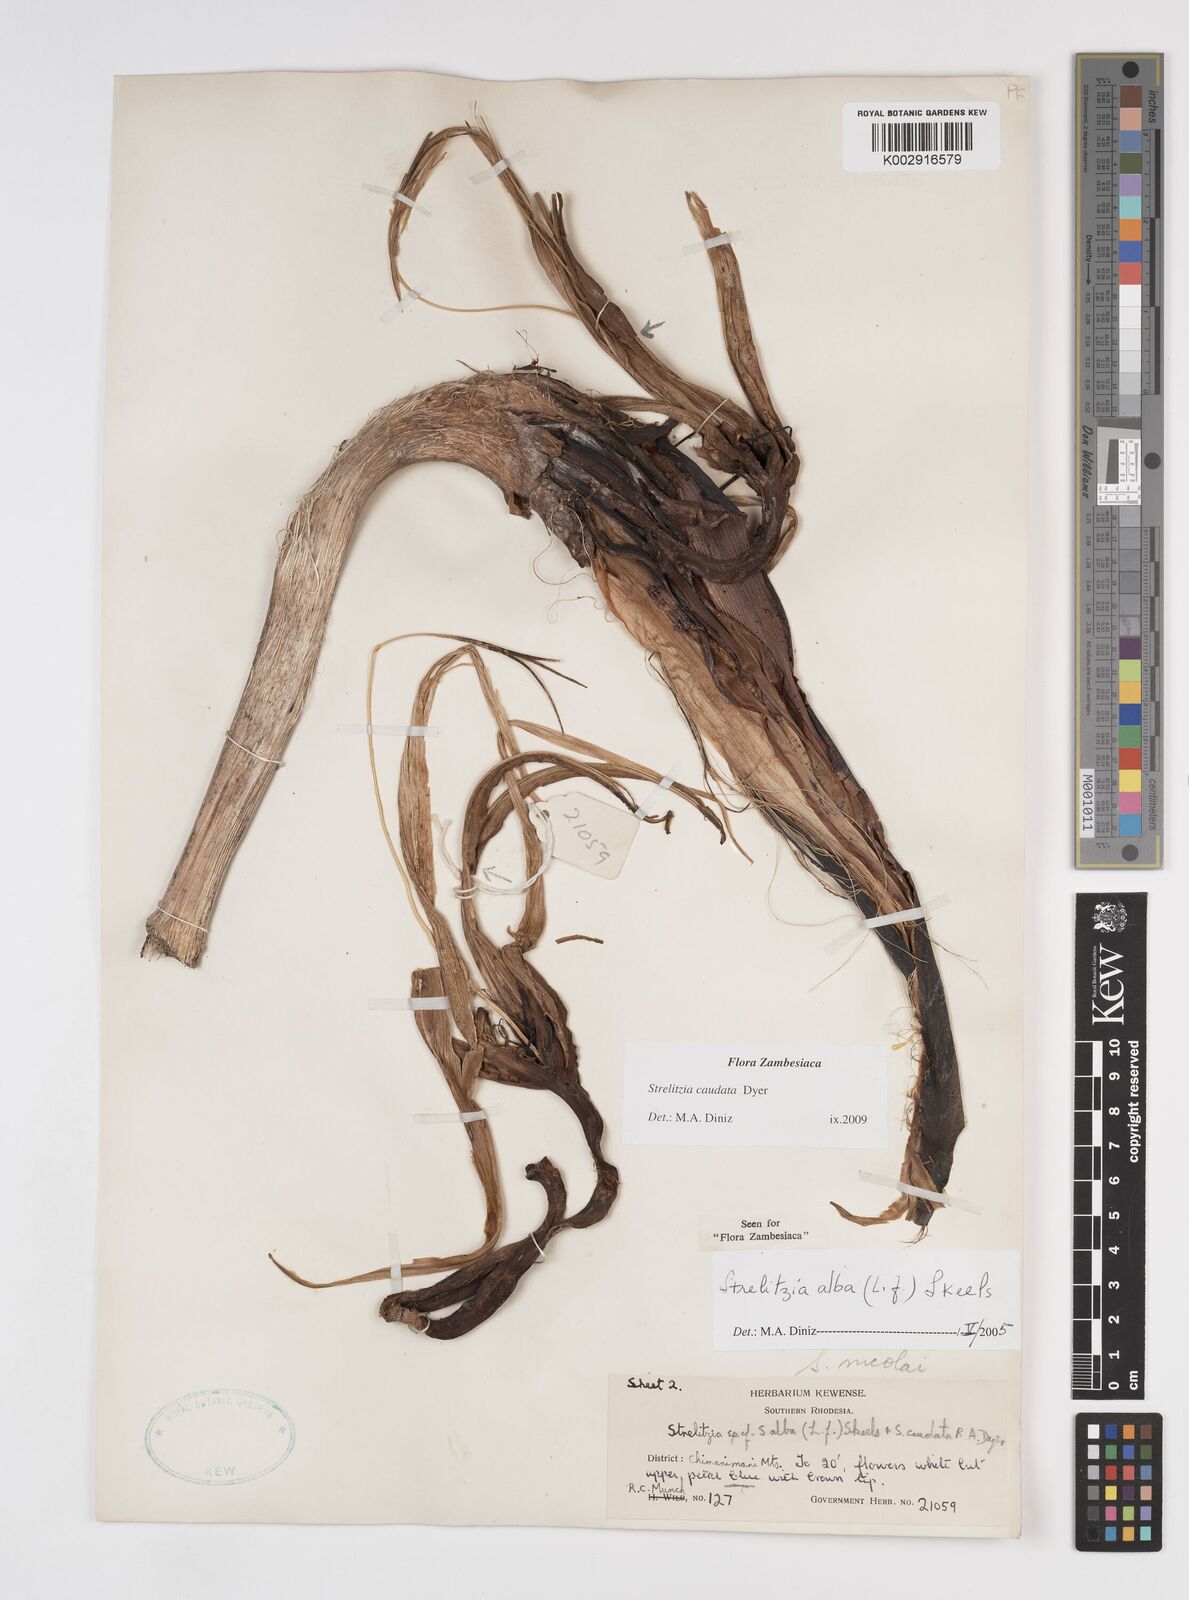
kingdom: Plantae
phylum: Tracheophyta
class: Liliopsida
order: Zingiberales
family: Strelitziaceae
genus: Strelitzia
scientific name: Strelitzia caudata
